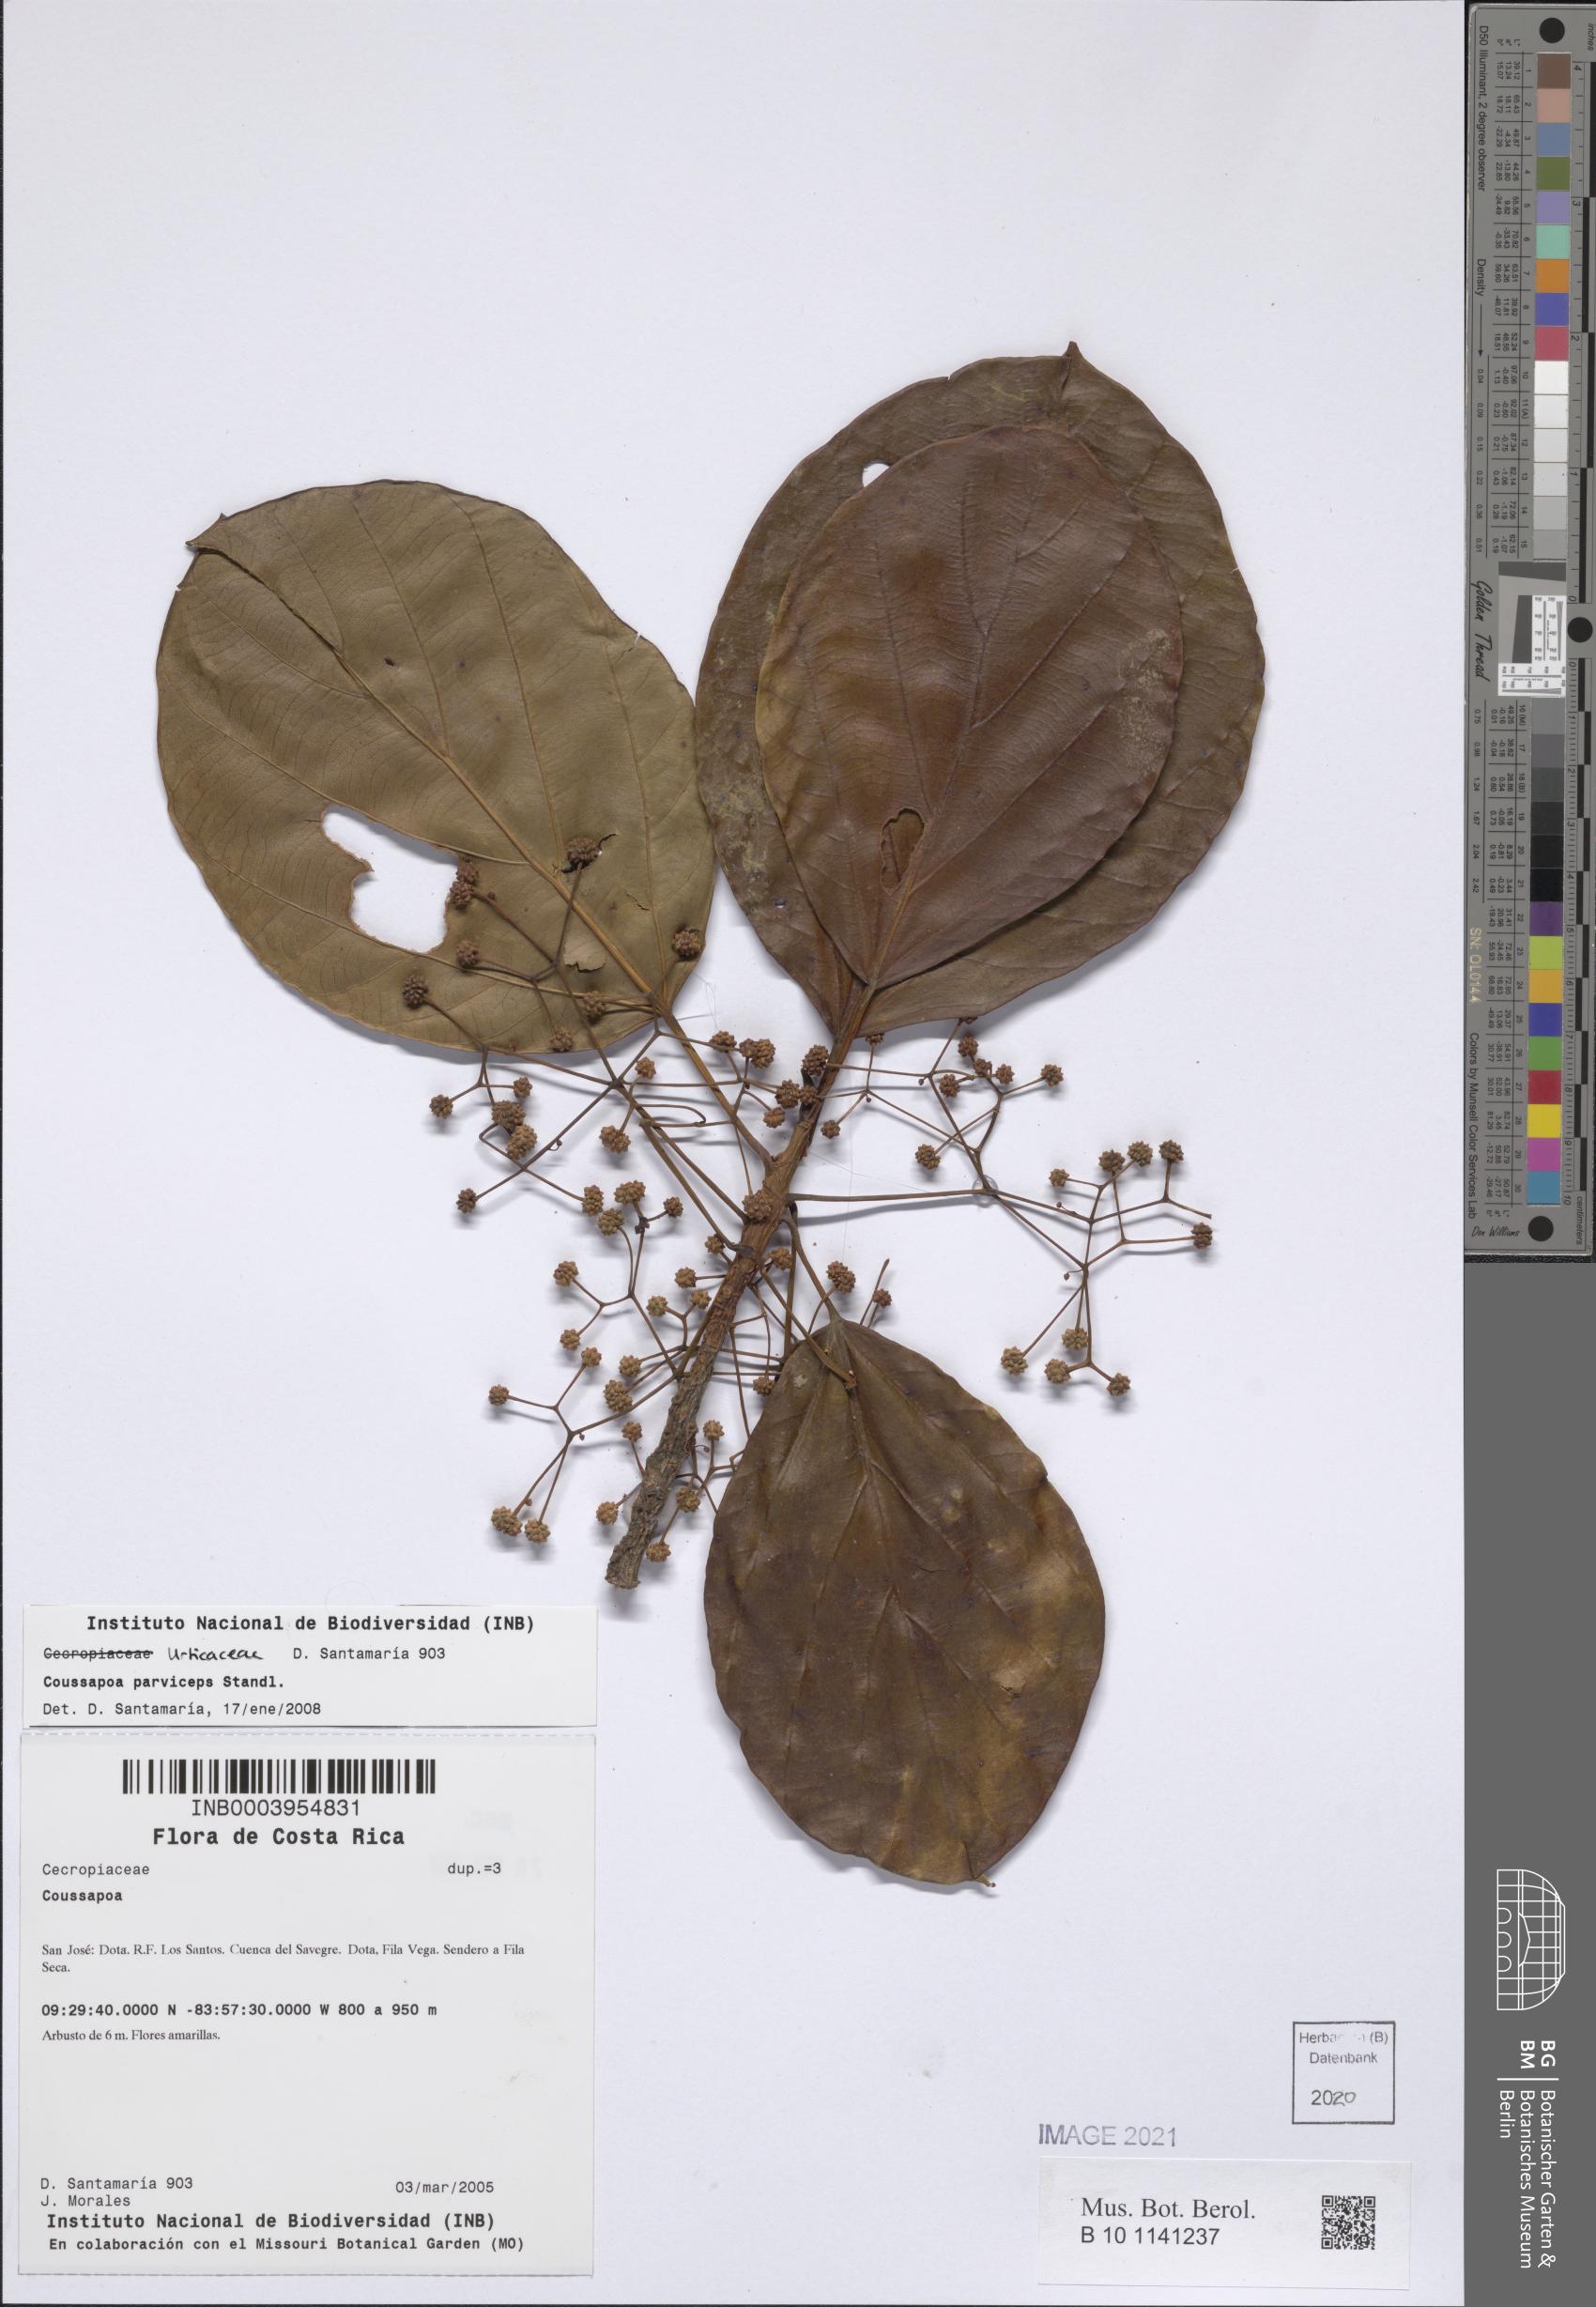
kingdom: Plantae
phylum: Tracheophyta
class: Magnoliopsida
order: Rosales
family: Urticaceae
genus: Coussapoa
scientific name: Coussapoa parviceps
